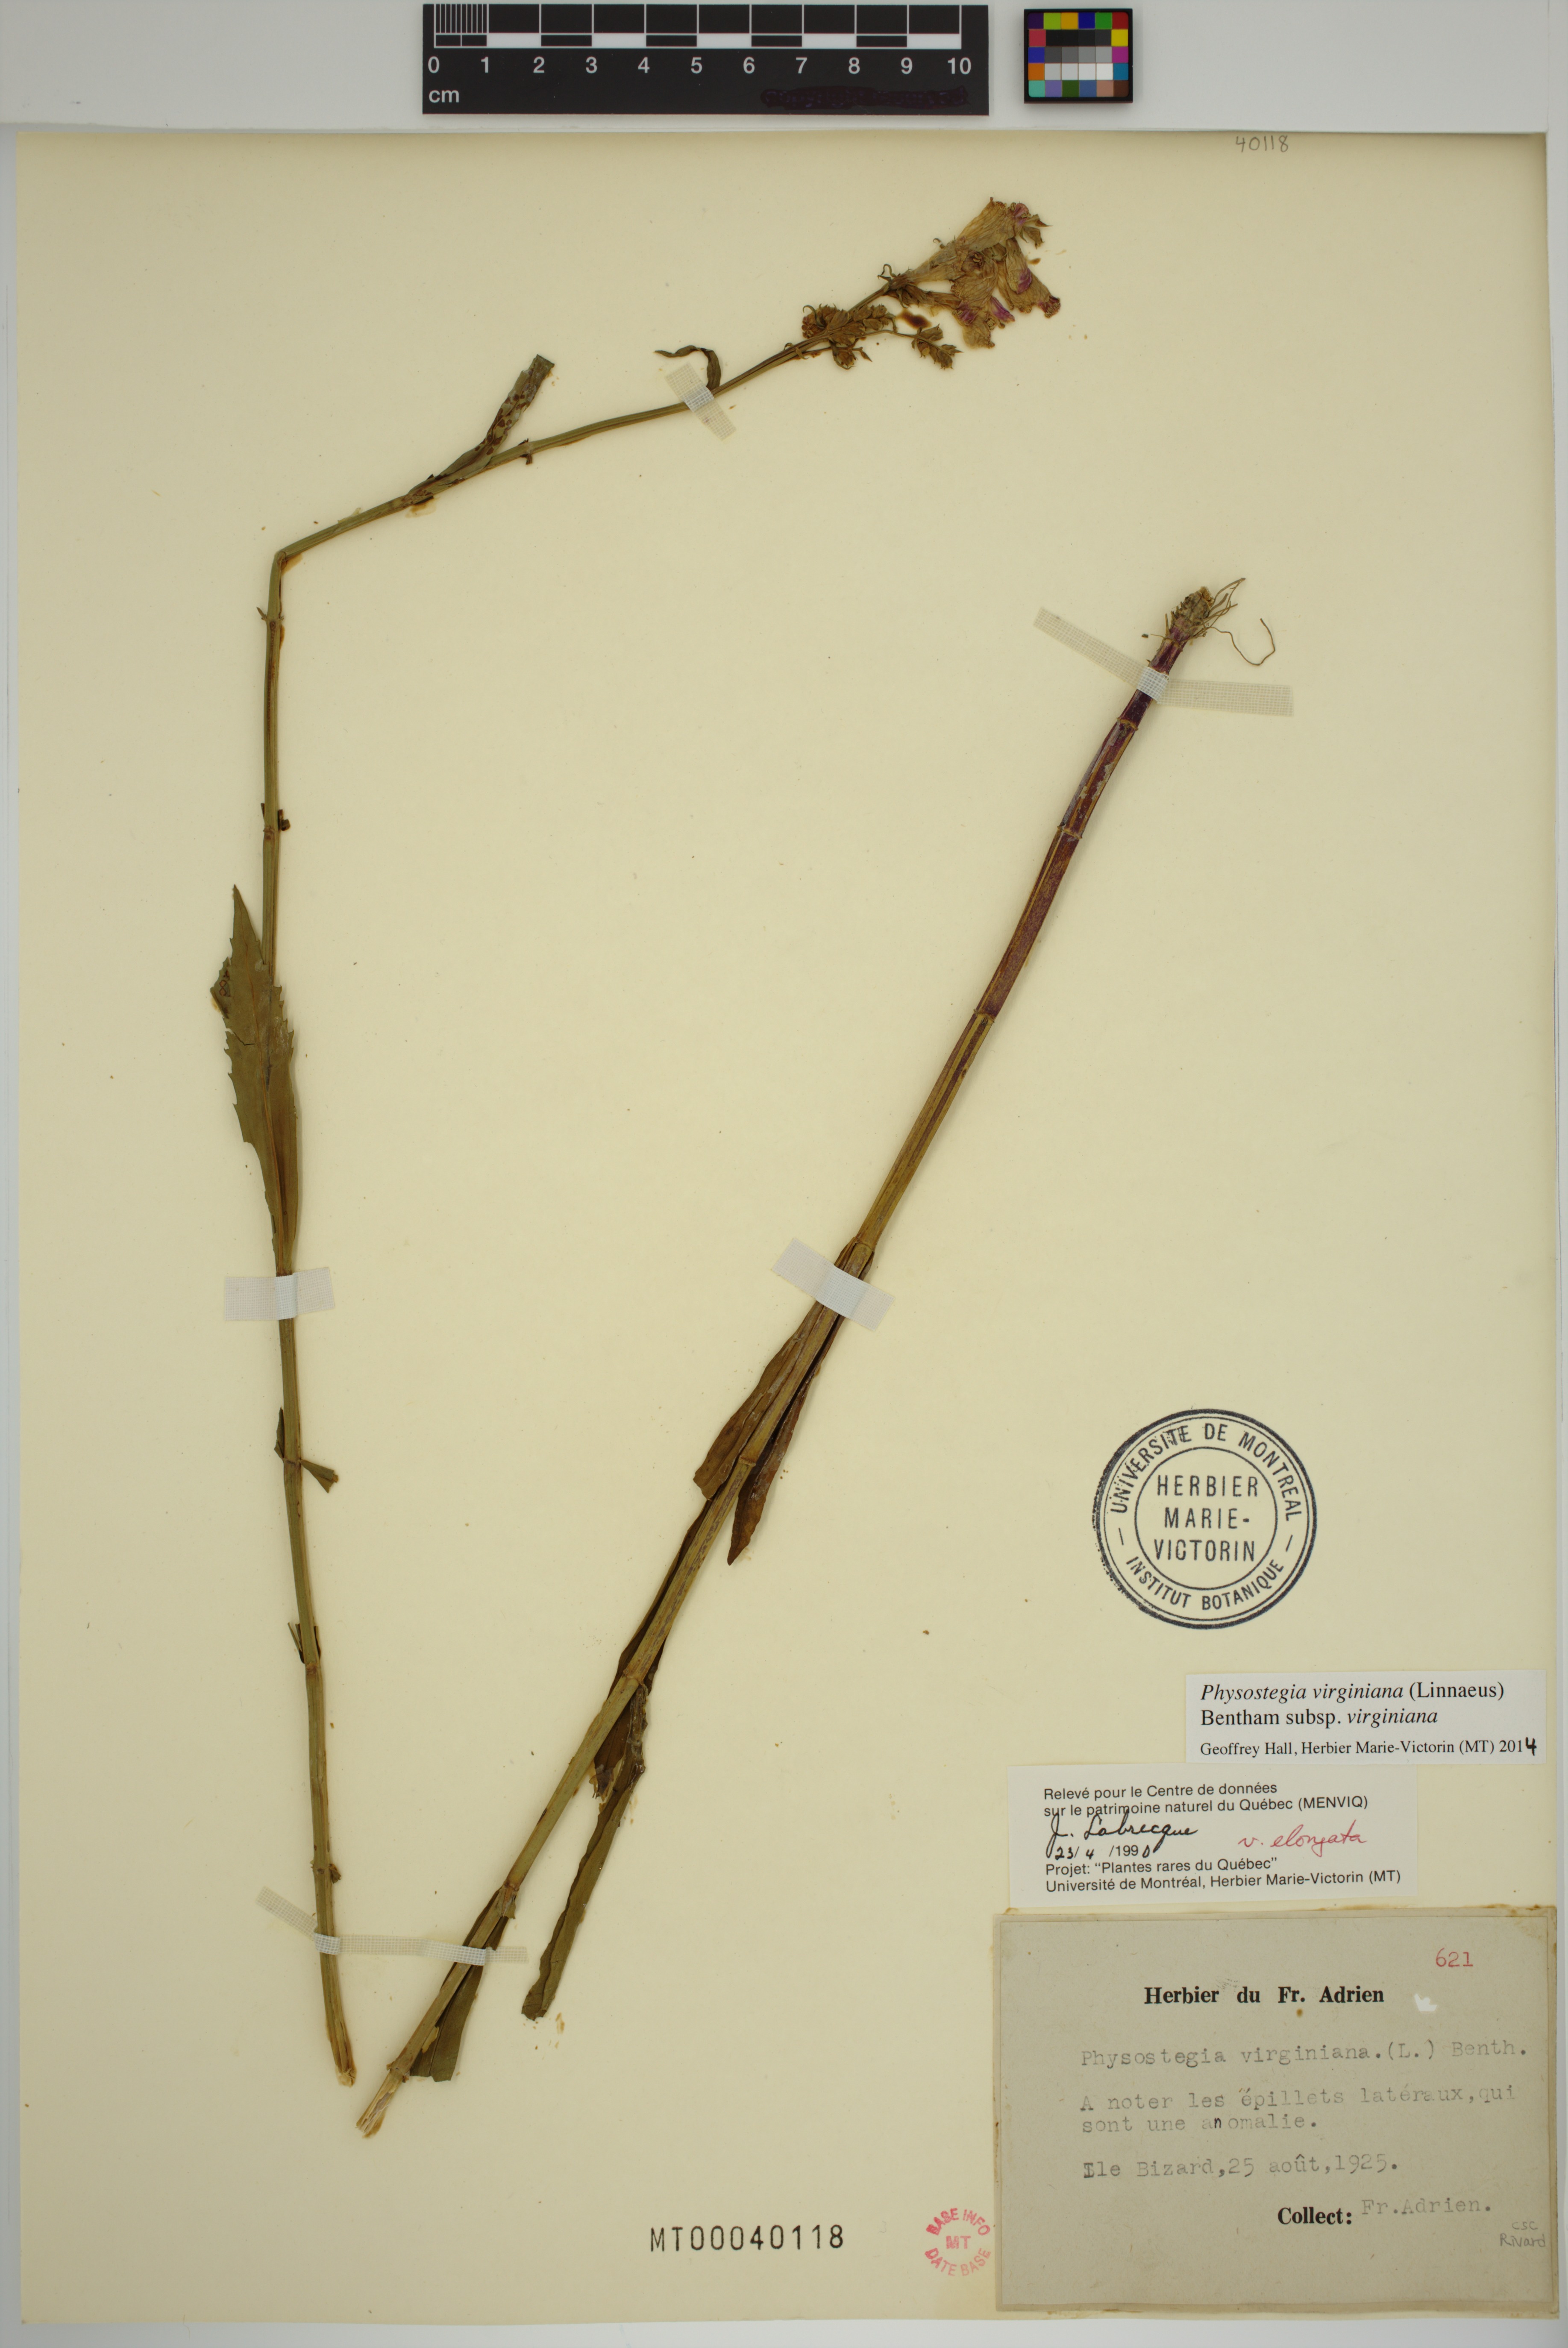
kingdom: Plantae
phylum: Tracheophyta
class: Magnoliopsida
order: Lamiales
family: Lamiaceae
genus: Physostegia
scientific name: Physostegia virginiana
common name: Obedient-plant
